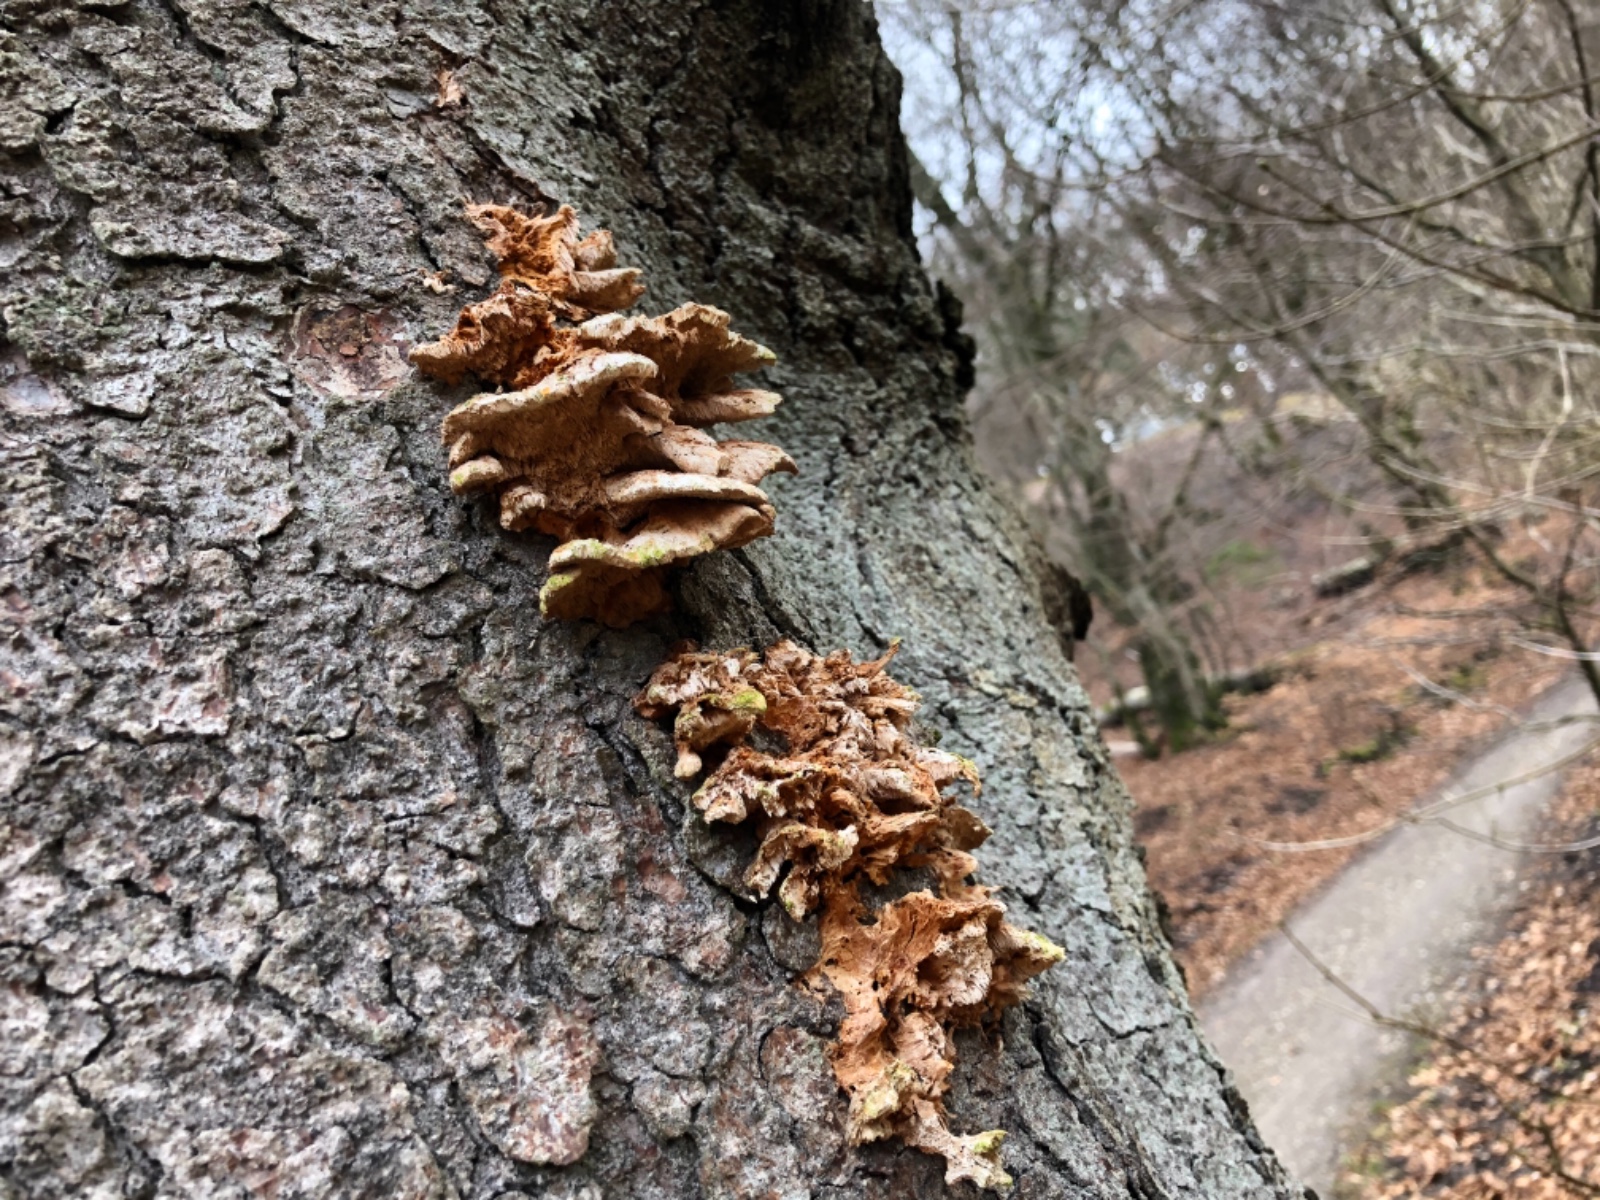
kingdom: Fungi
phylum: Basidiomycota
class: Agaricomycetes
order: Polyporales
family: Pycnoporellaceae
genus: Pycnoporellus
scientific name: Pycnoporellus fulgens
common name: flammeporesvamp
